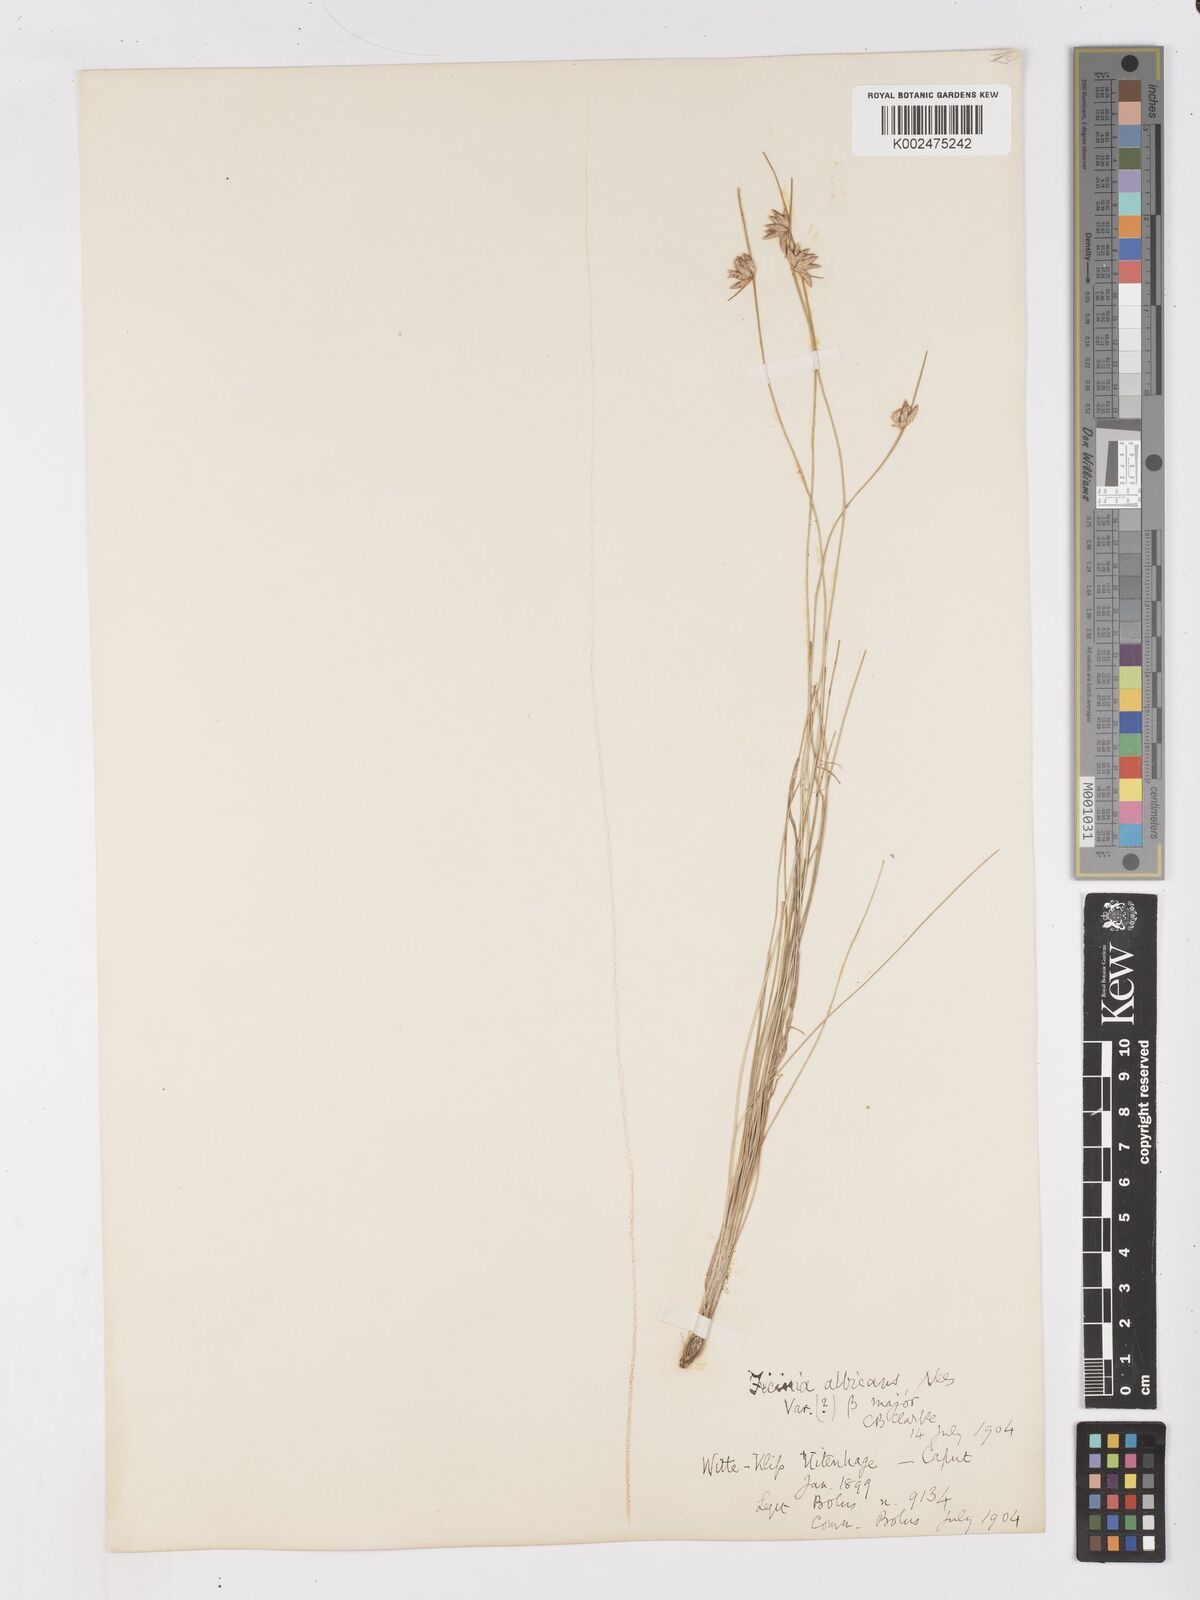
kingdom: Plantae
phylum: Tracheophyta
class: Liliopsida
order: Poales
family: Cyperaceae
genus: Ficinia
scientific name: Ficinia albicans
